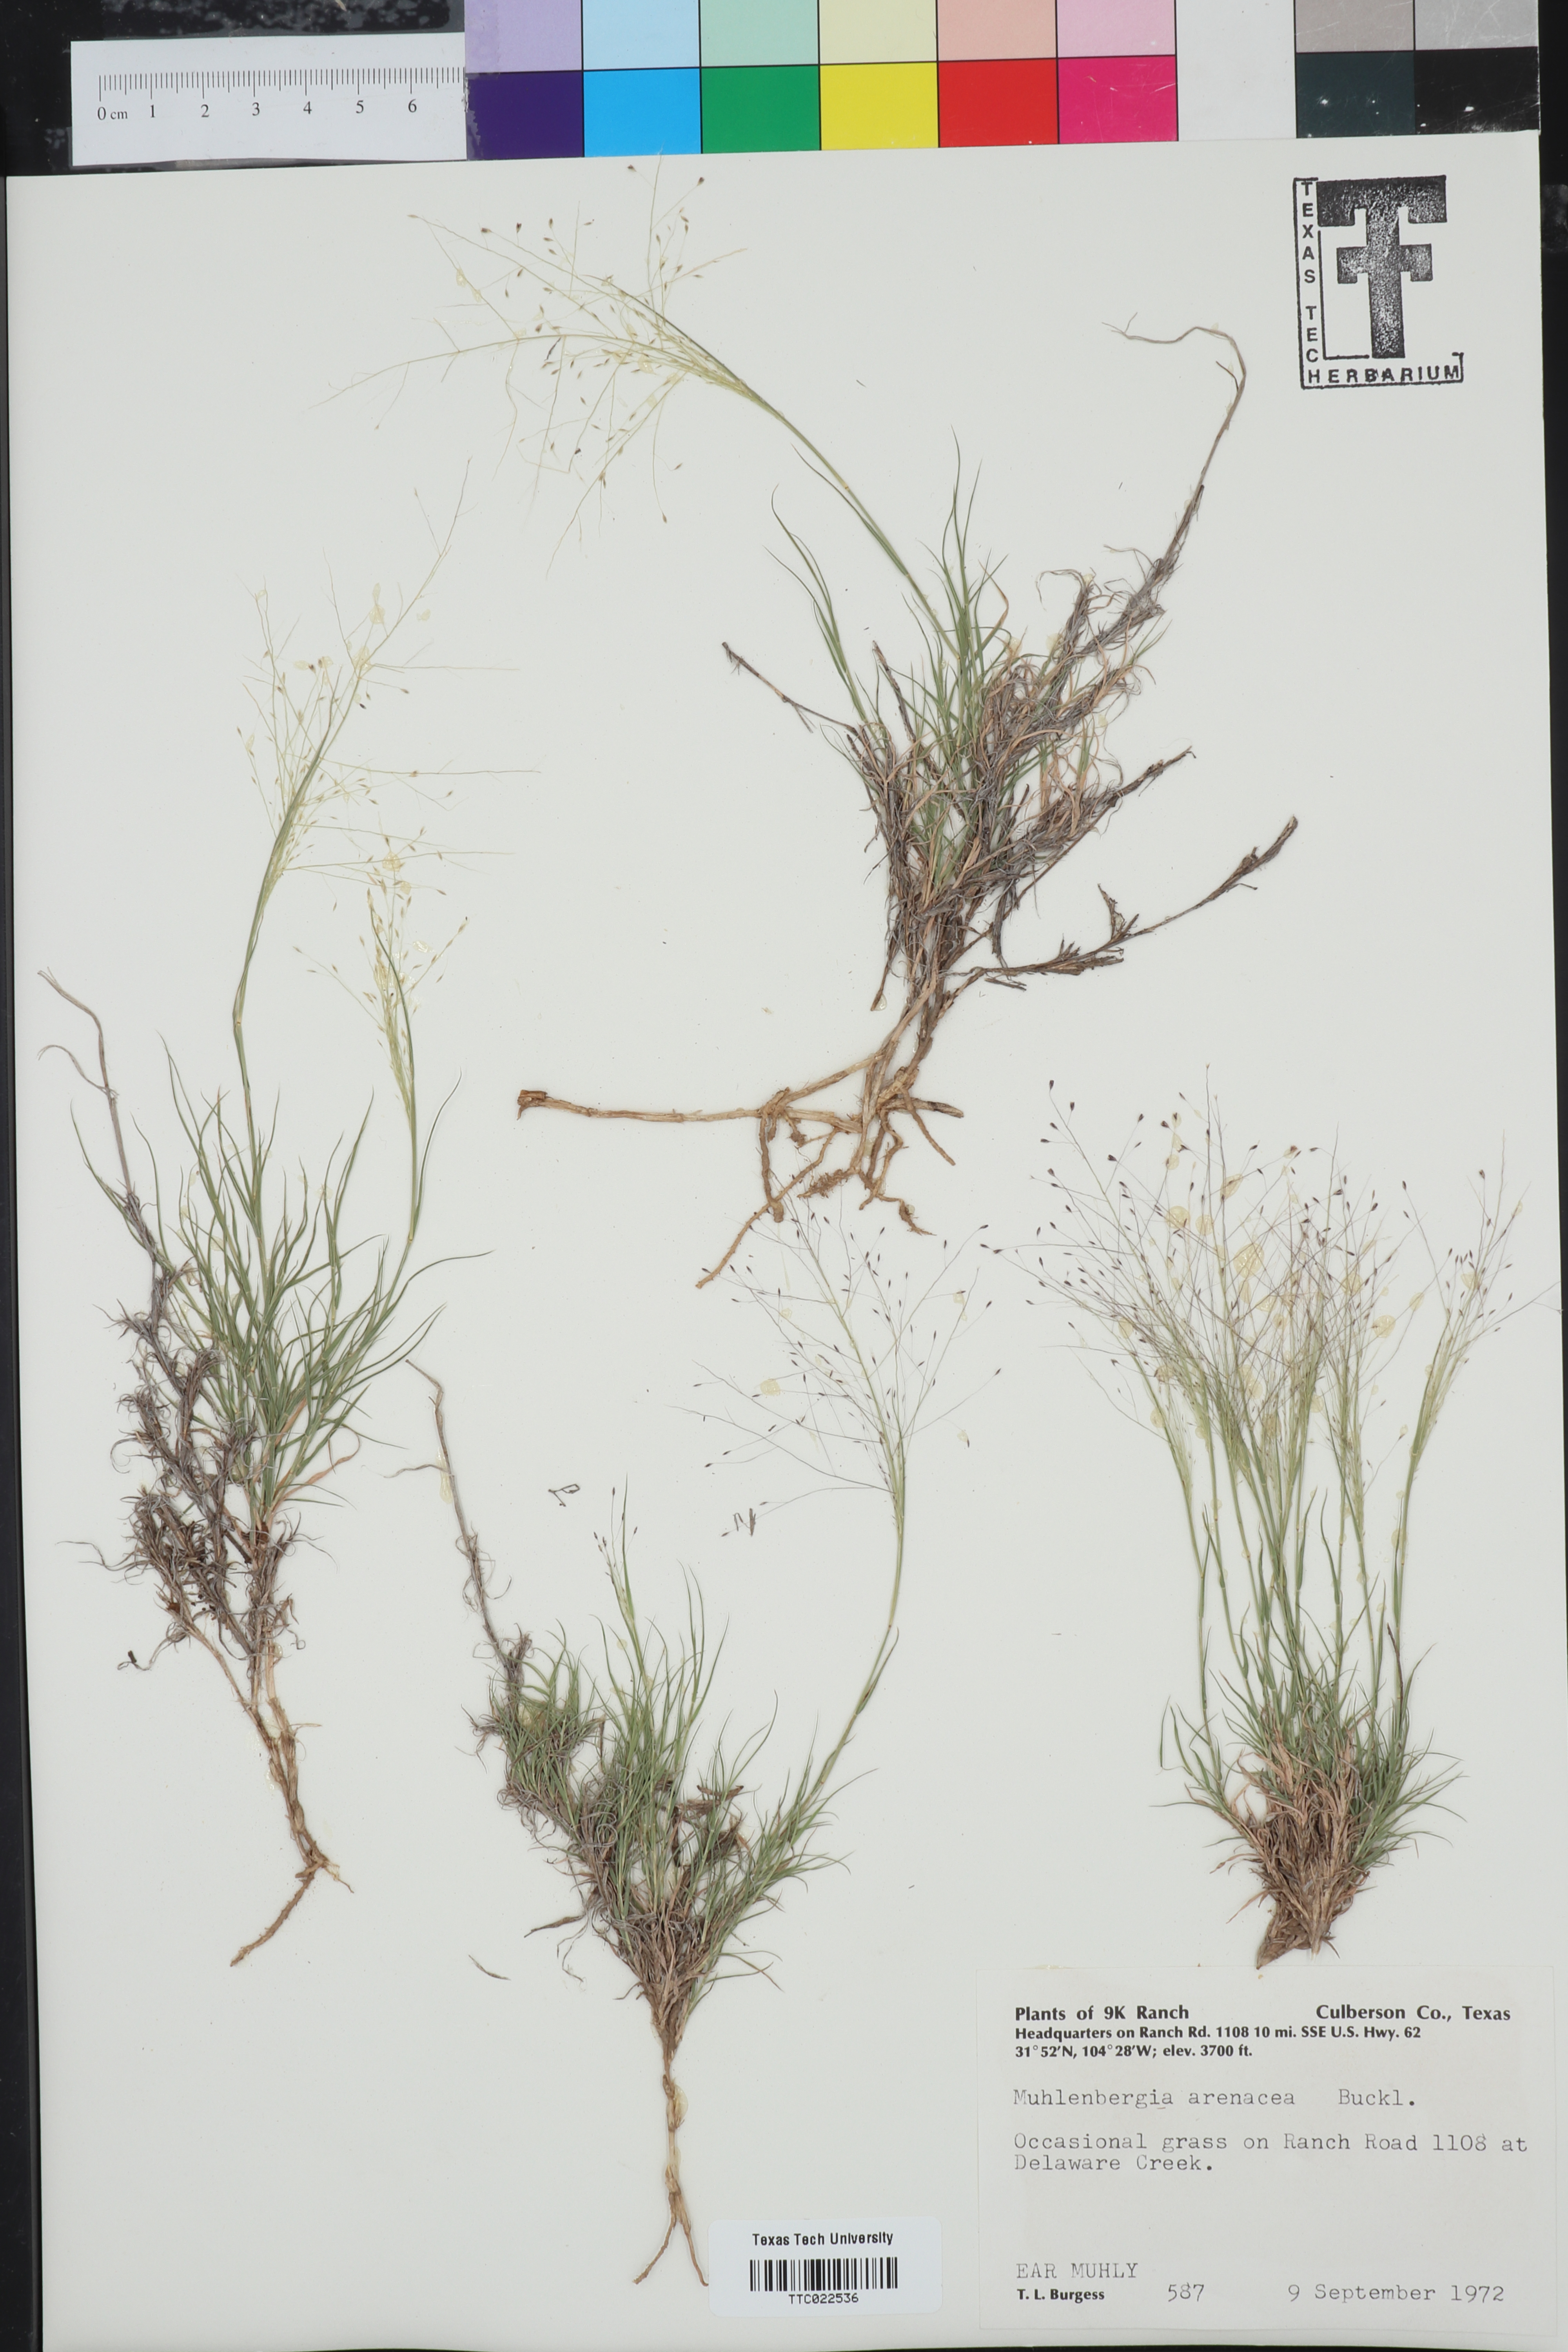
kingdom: Plantae
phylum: Tracheophyta
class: Liliopsida
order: Poales
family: Poaceae
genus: Muhlenbergia
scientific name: Muhlenbergia arenacea
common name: Ear muhly
